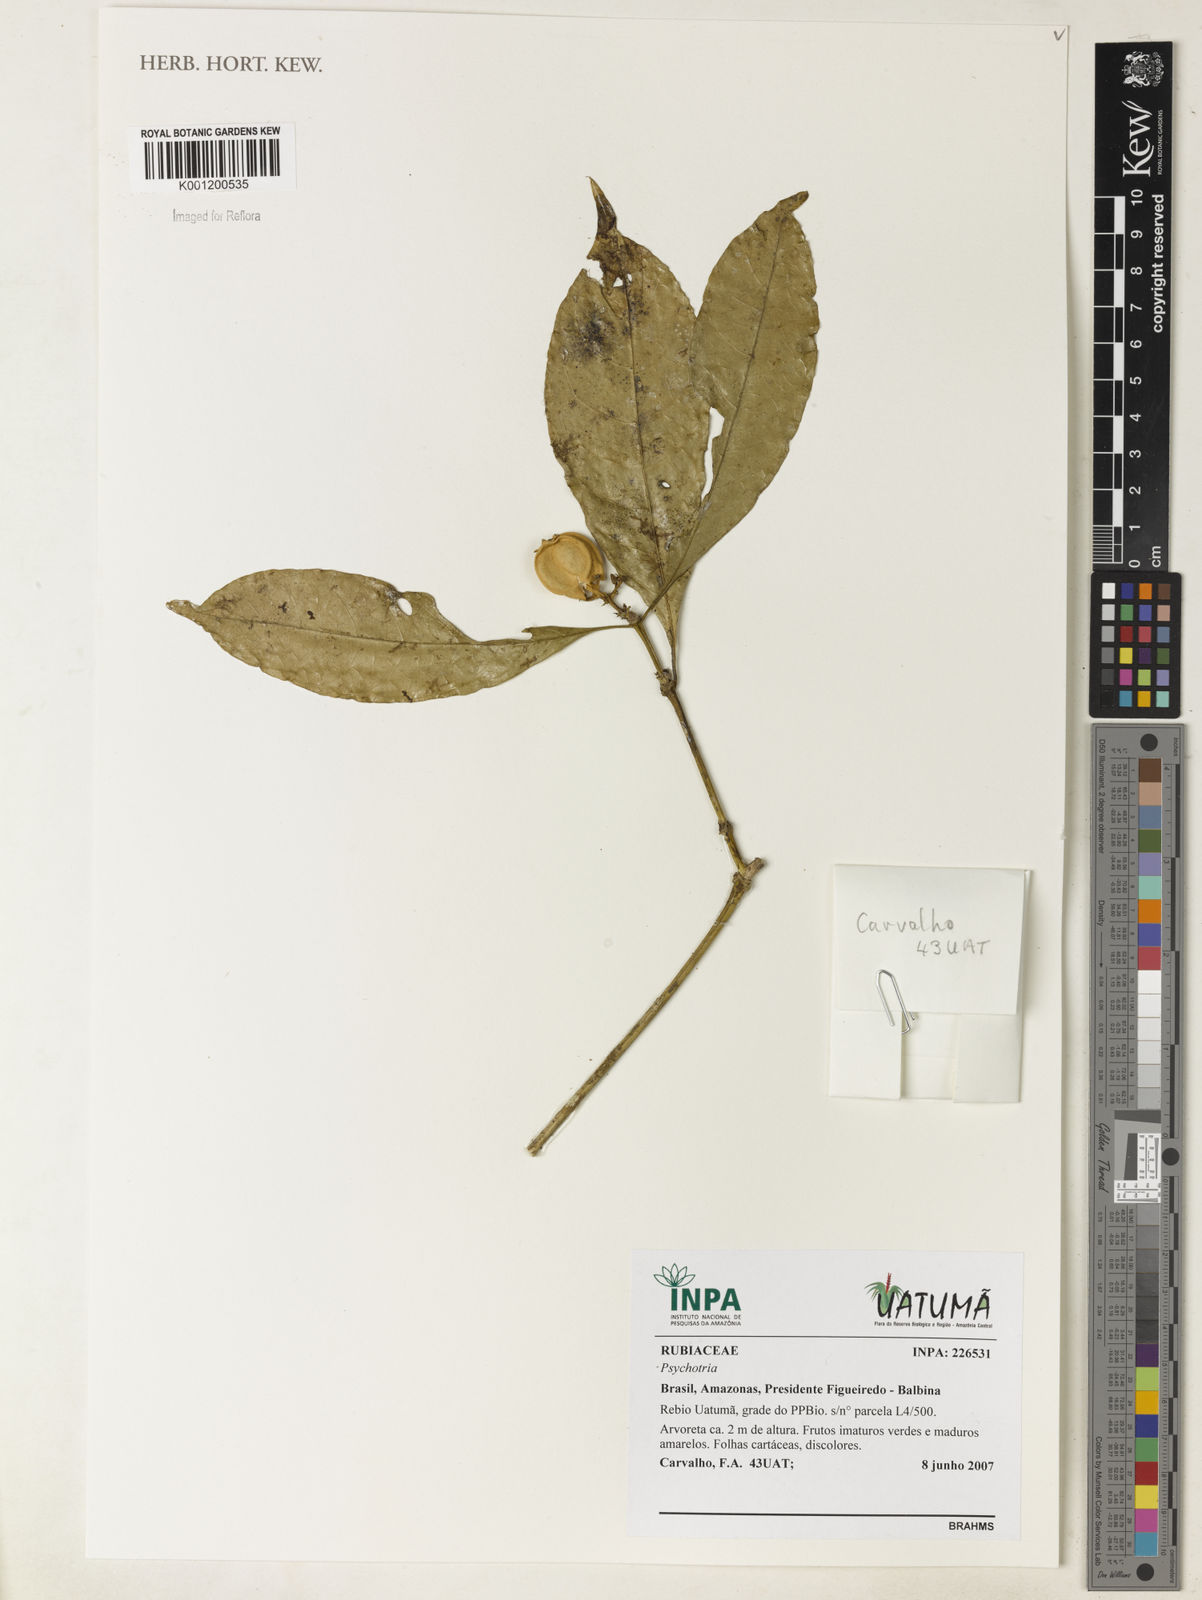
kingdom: Plantae
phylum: Tracheophyta
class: Magnoliopsida
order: Gentianales
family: Rubiaceae
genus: Psychotria
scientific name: Psychotria
